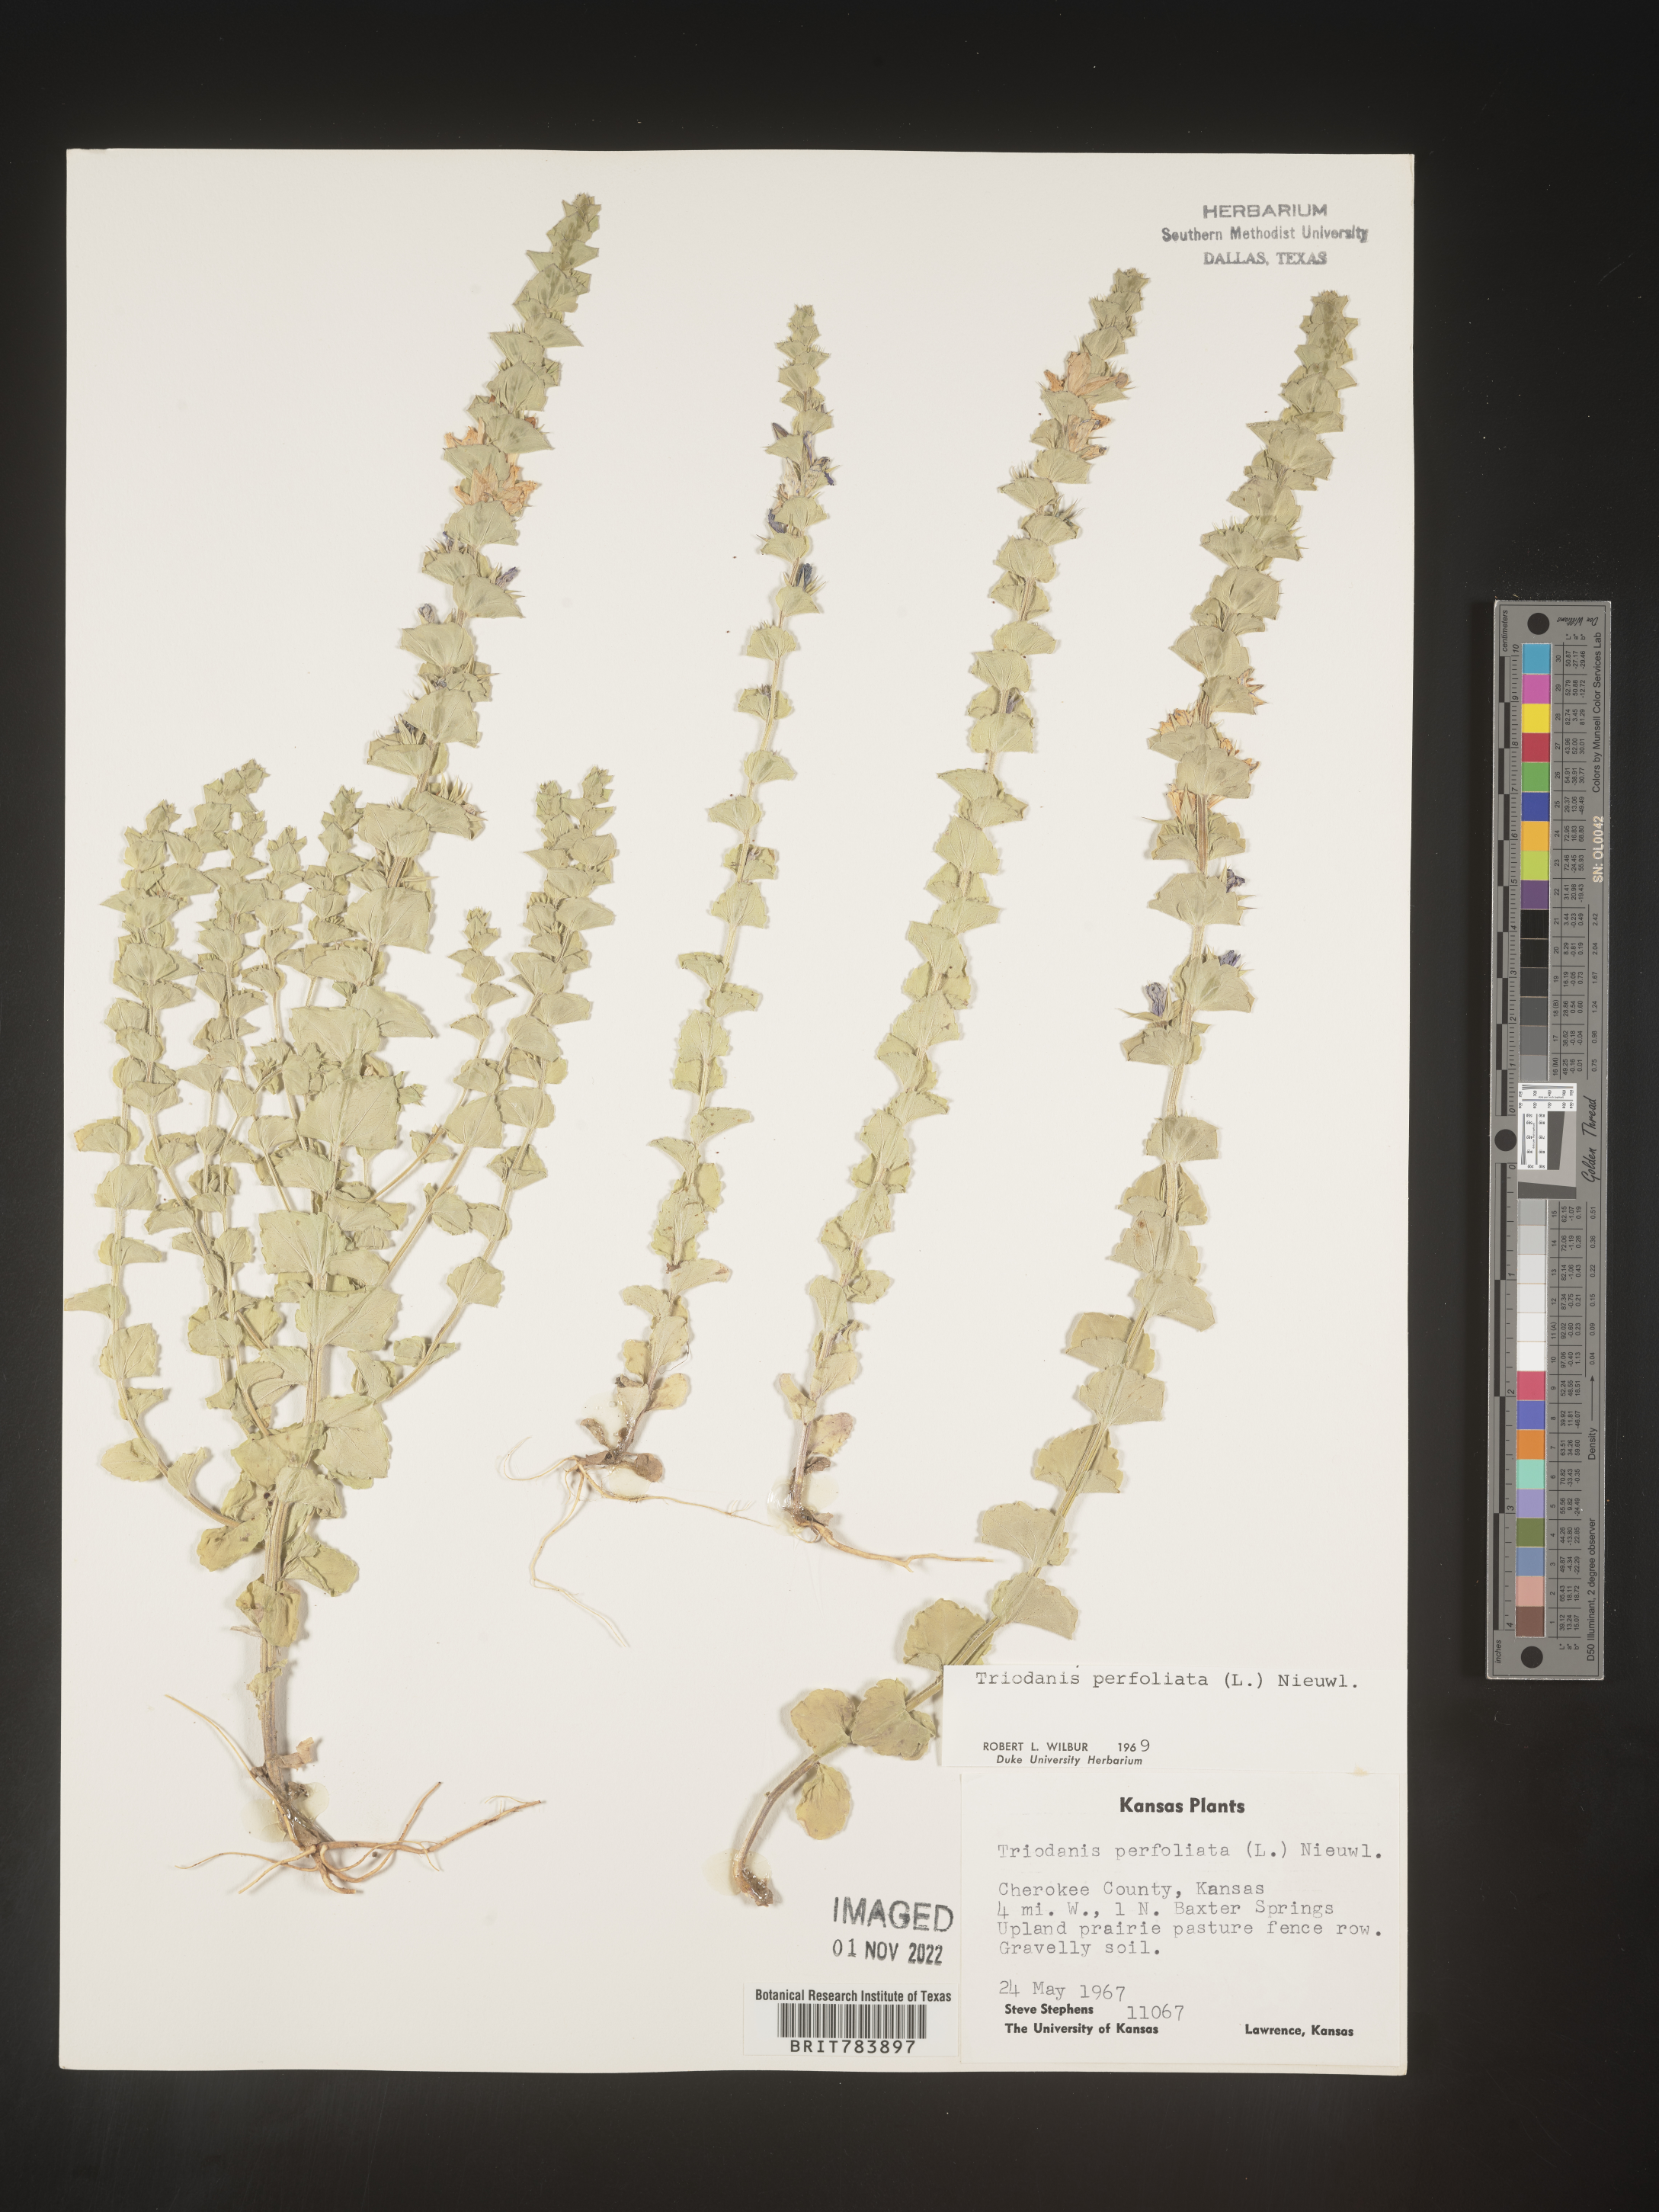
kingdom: Plantae
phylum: Tracheophyta
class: Magnoliopsida
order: Asterales
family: Campanulaceae
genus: Triodanis
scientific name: Triodanis perfoliata
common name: Clasping venus' looking-glass
